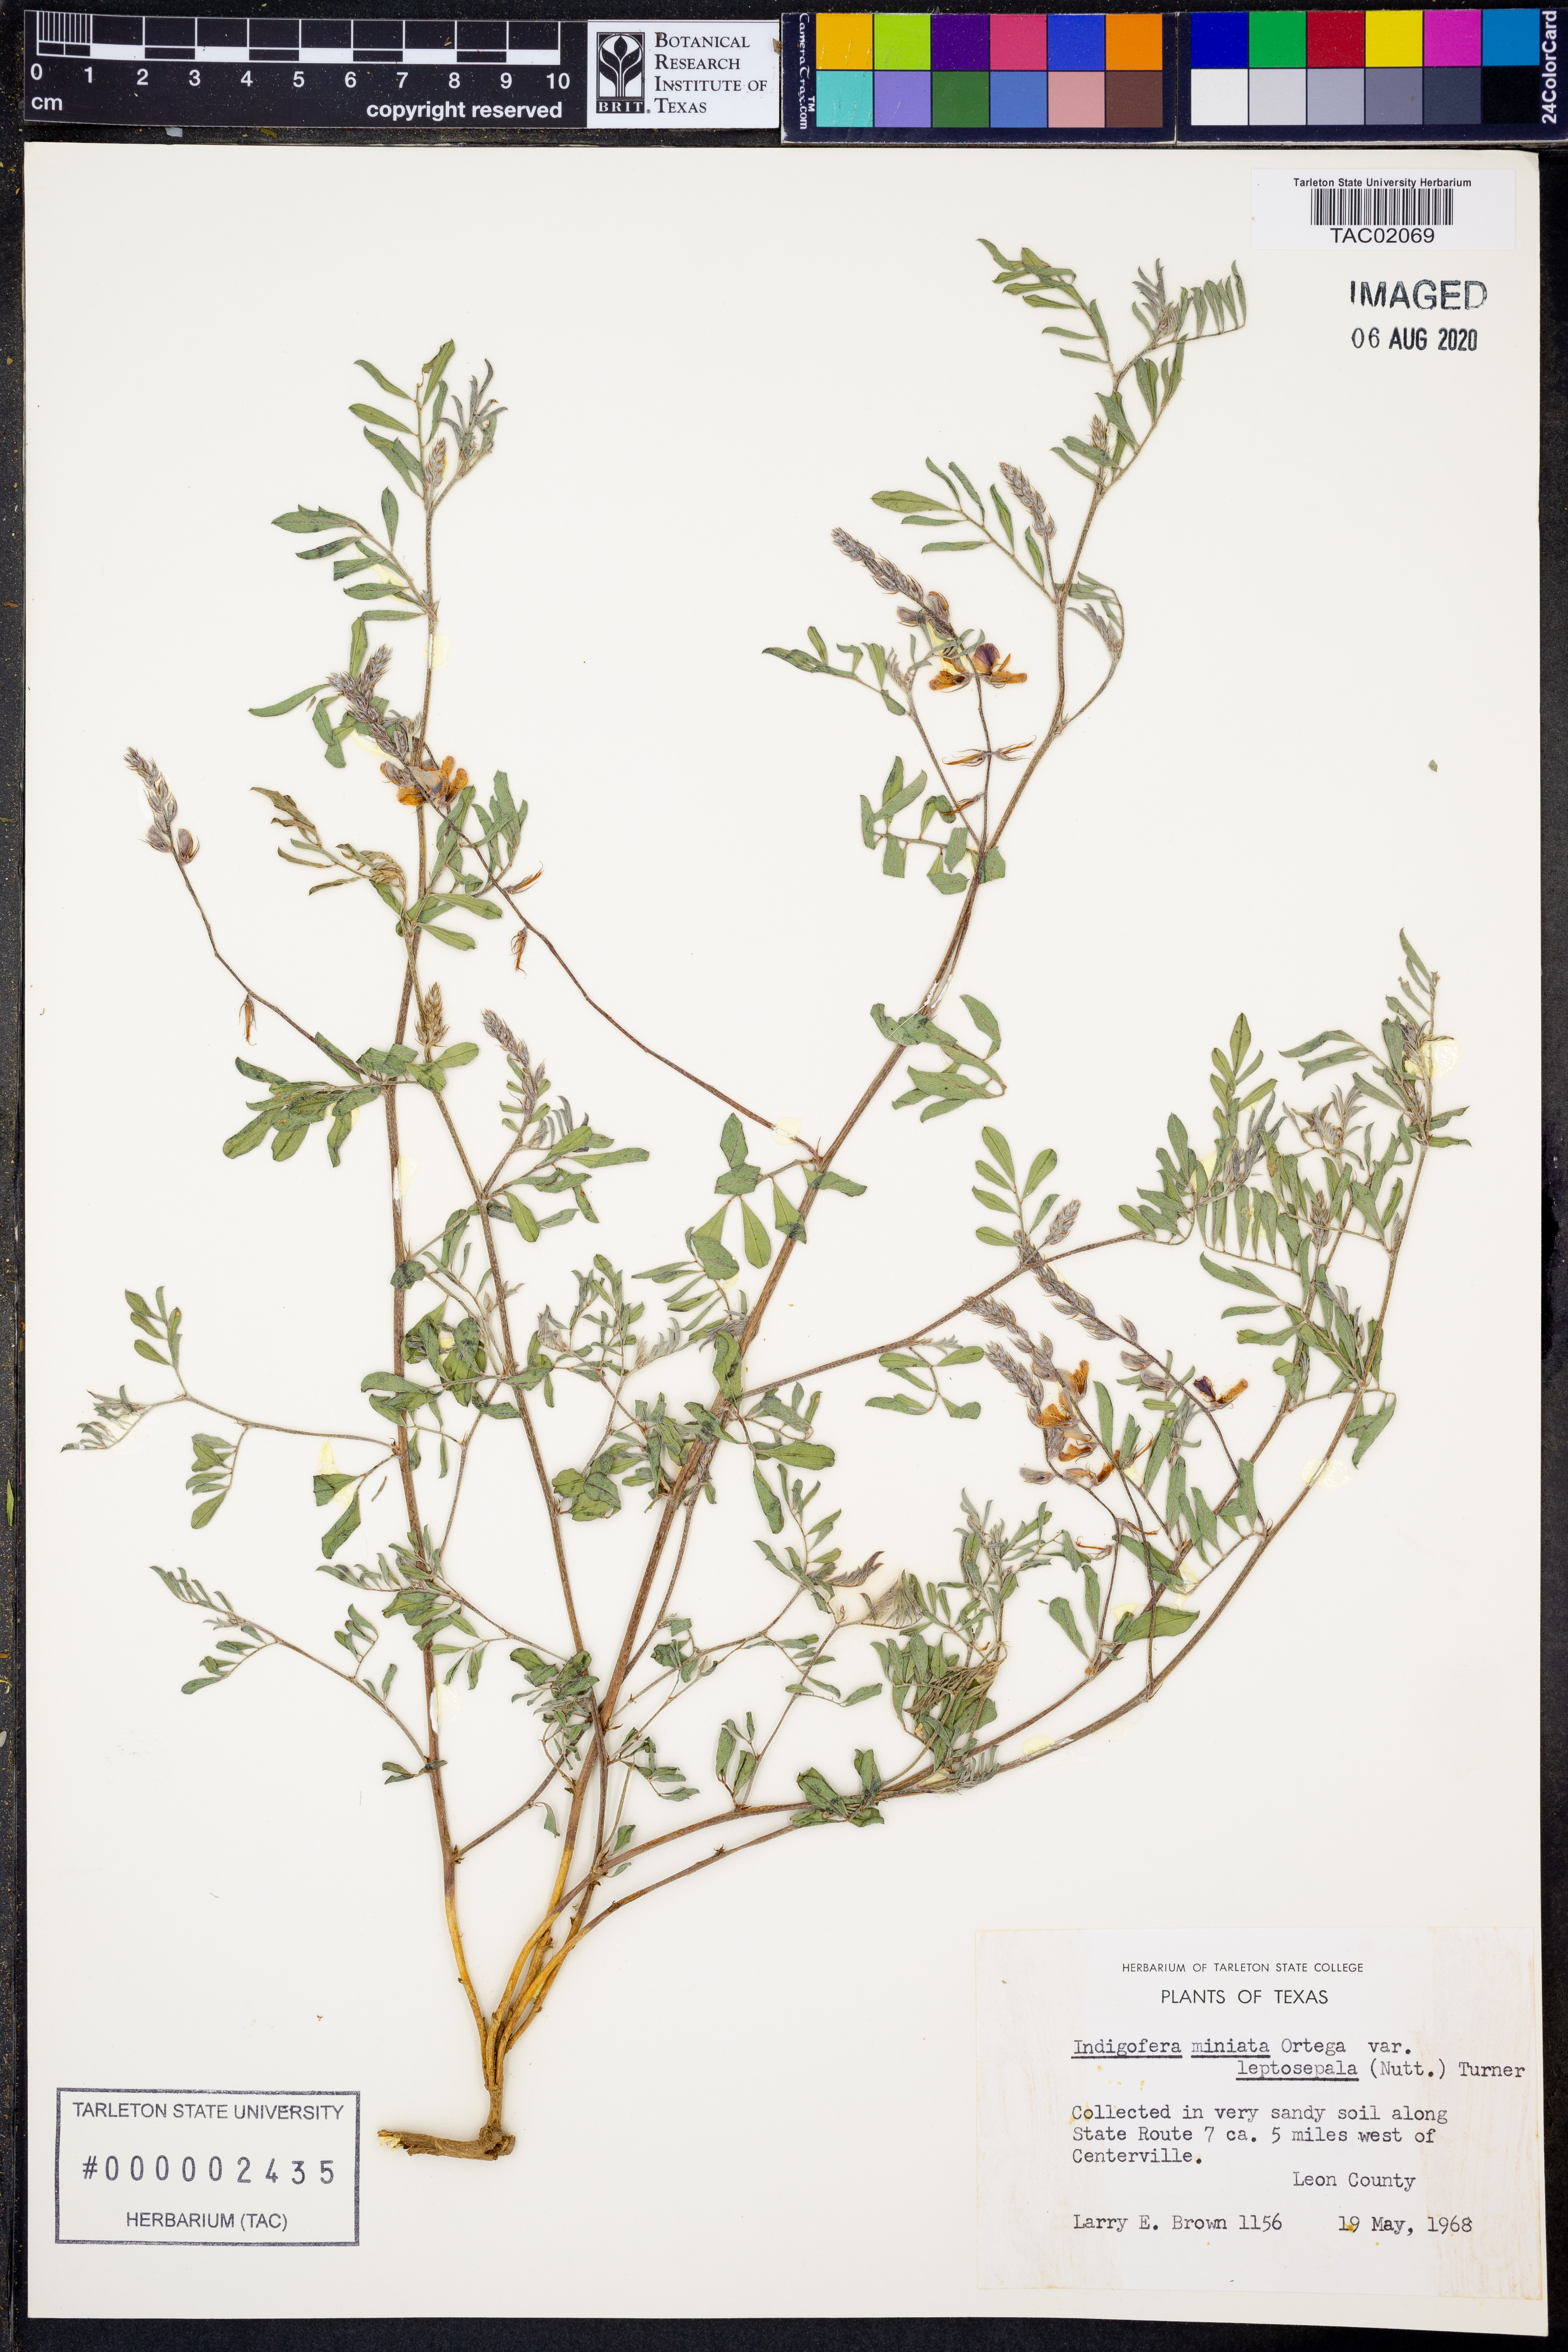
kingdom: Plantae
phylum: Tracheophyta
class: Magnoliopsida
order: Fabales
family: Fabaceae
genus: Indigofera
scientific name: Indigofera miniata
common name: Coast indigo
